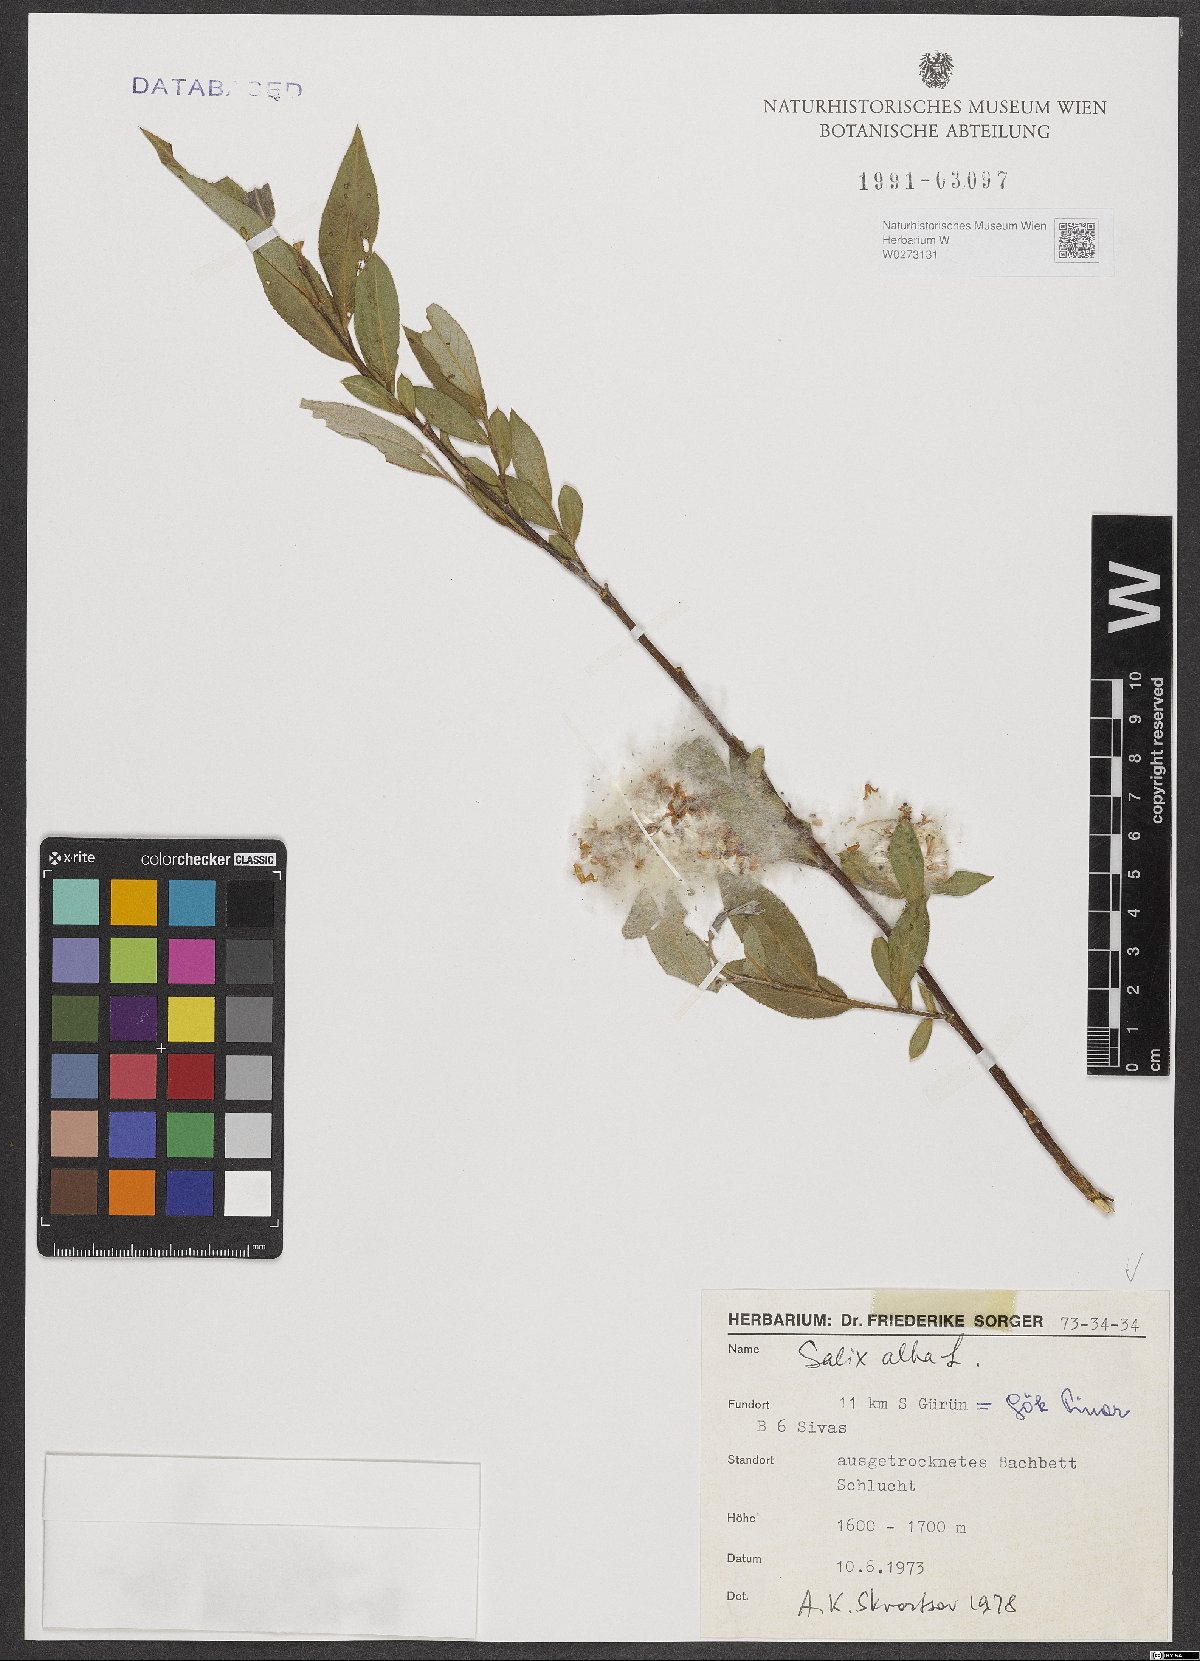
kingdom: Plantae
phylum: Tracheophyta
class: Magnoliopsida
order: Malpighiales
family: Salicaceae
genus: Salix
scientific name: Salix alba
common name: White willow
